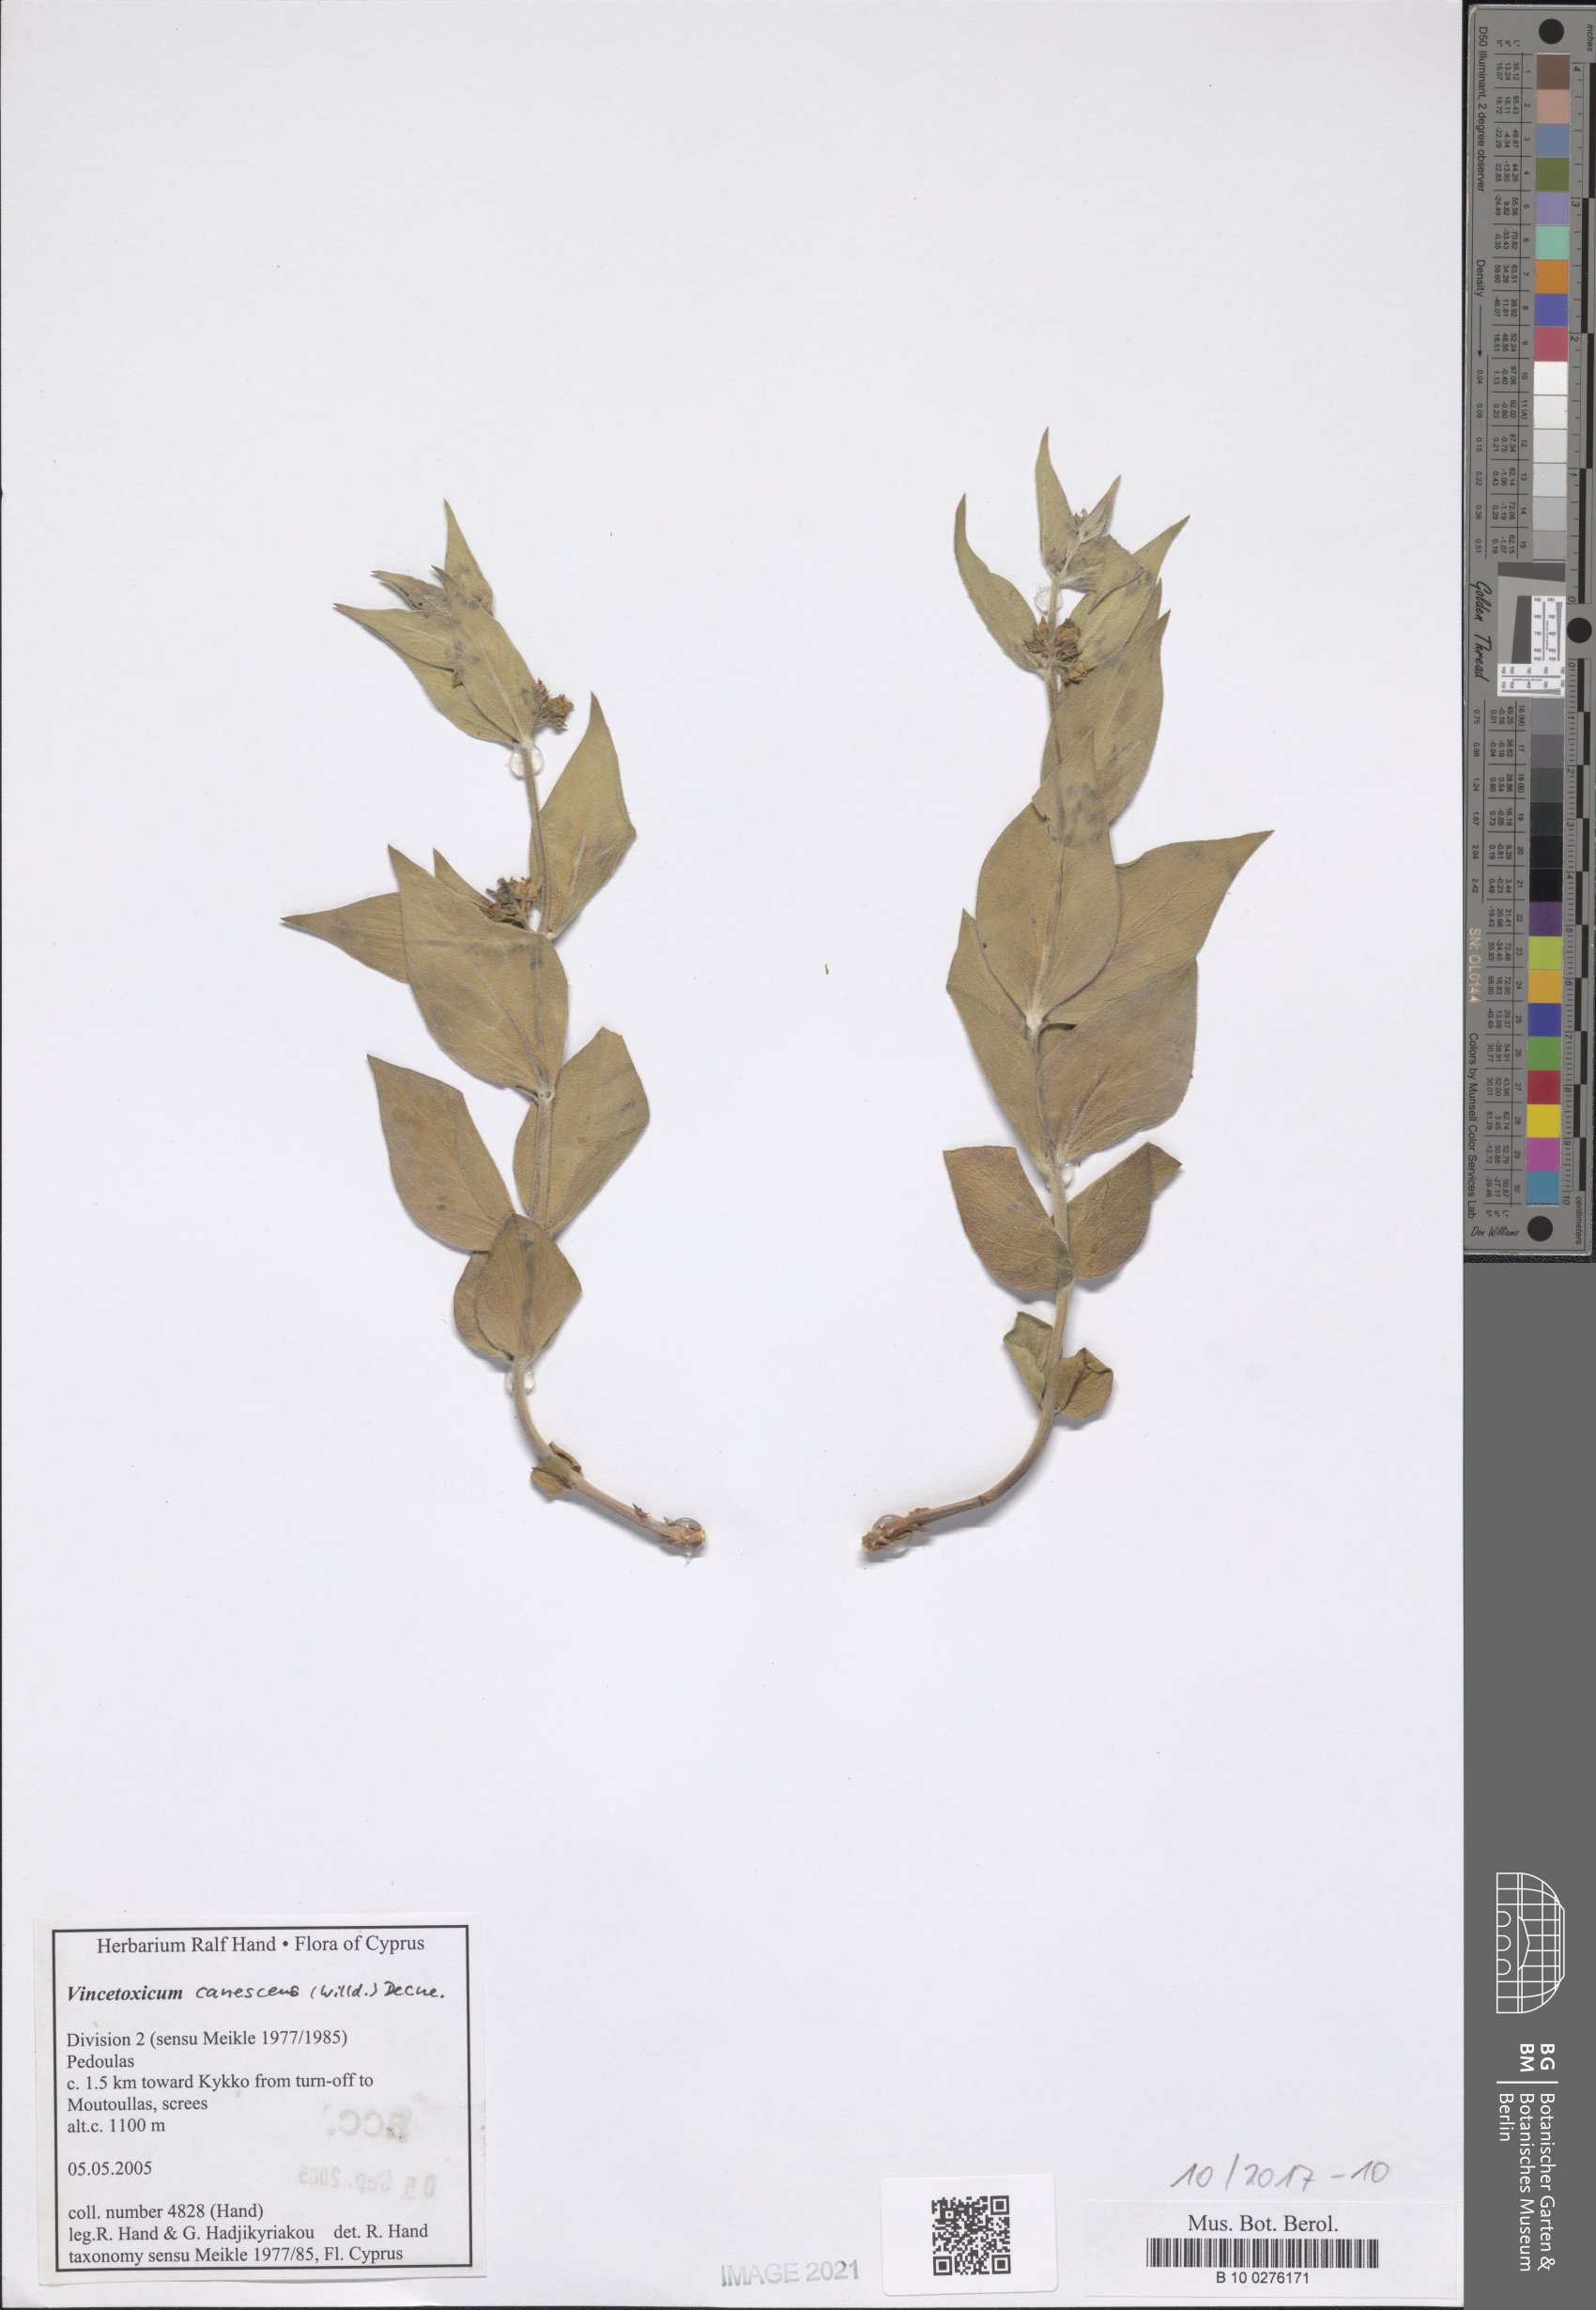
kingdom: Plantae
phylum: Tracheophyta
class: Magnoliopsida
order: Gentianales
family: Apocynaceae
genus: Vincetoxicum
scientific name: Vincetoxicum canescens
